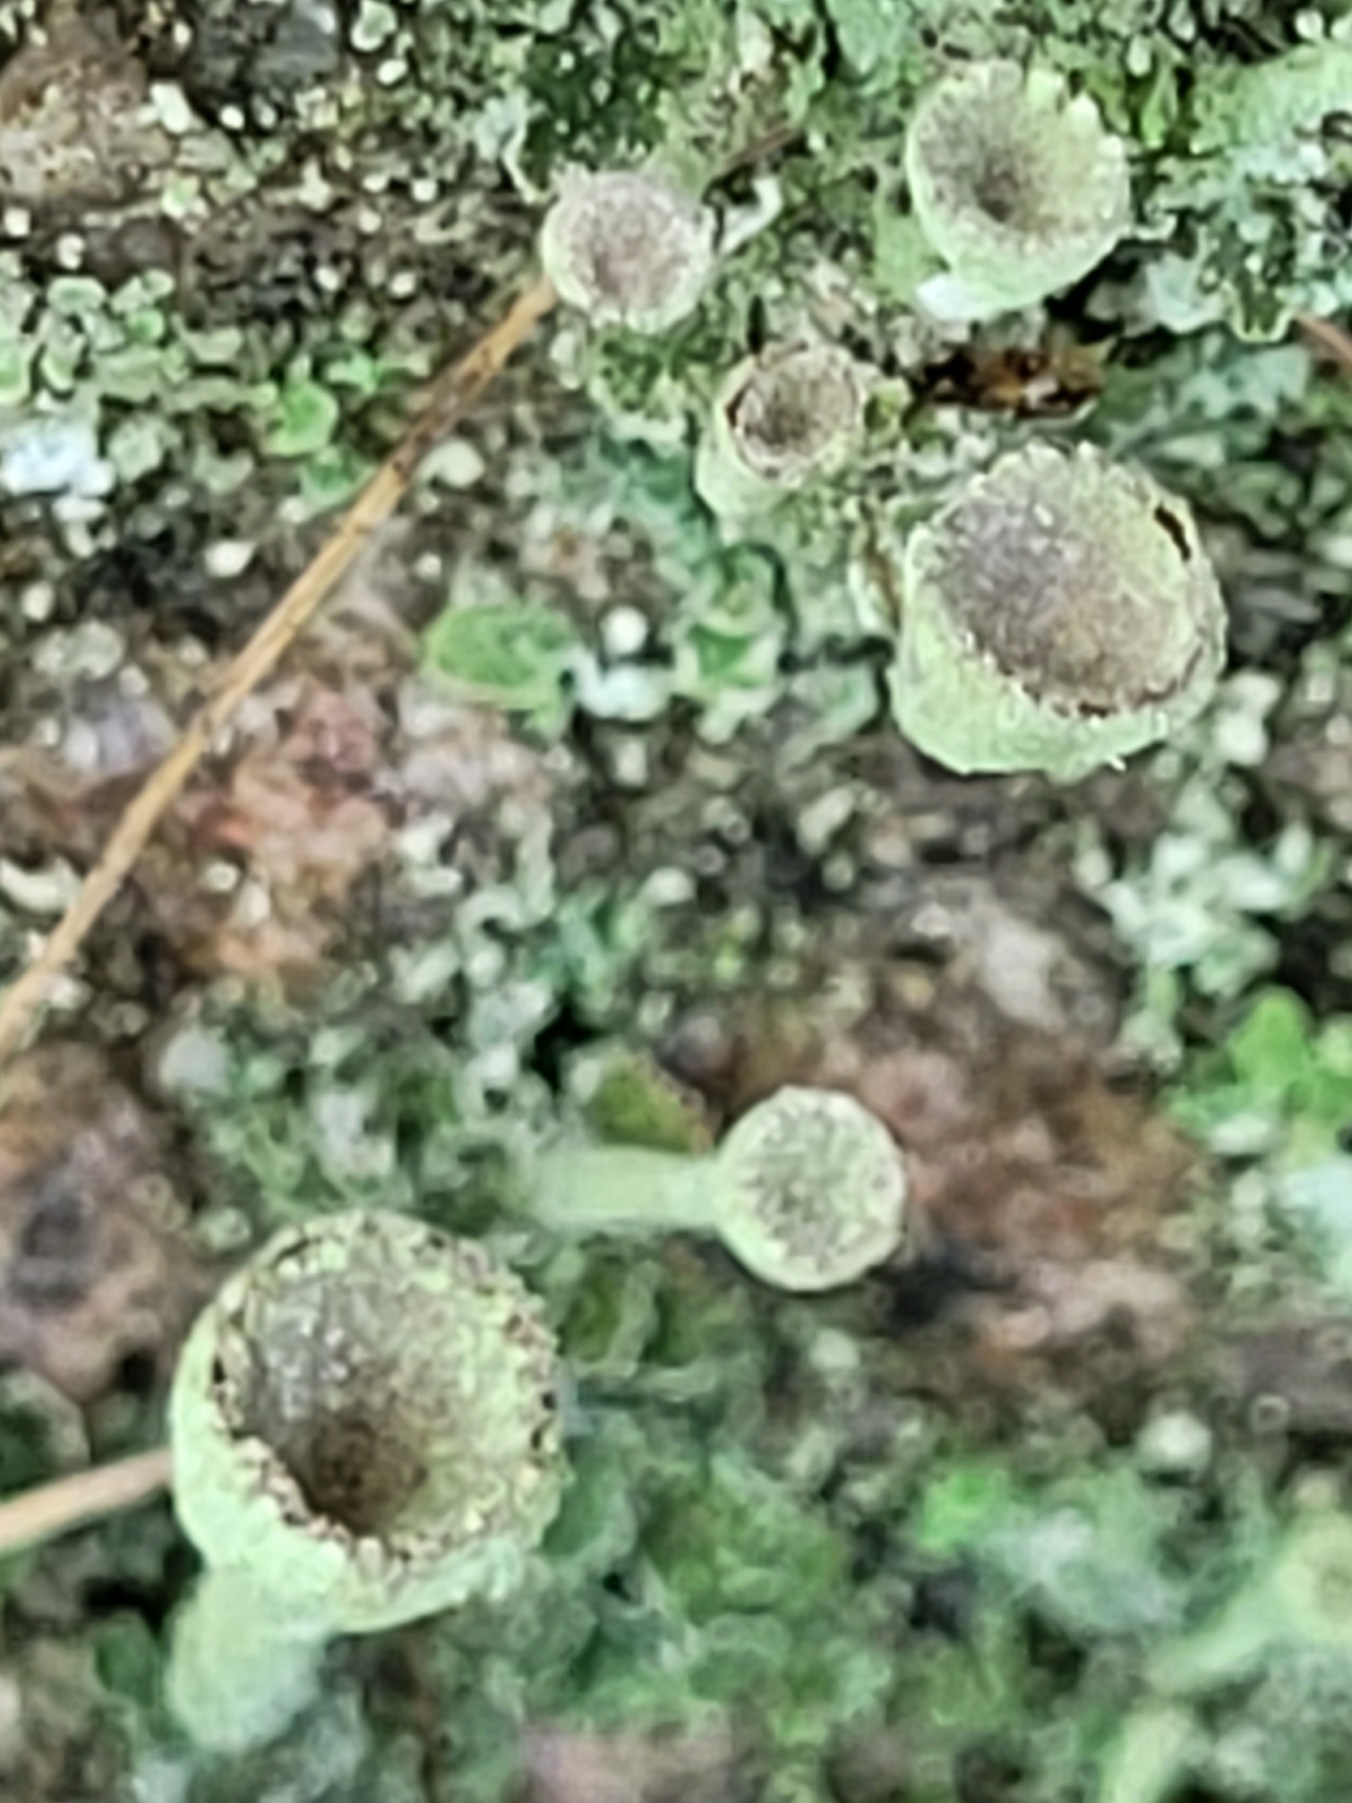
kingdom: Fungi
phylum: Ascomycota
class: Lecanoromycetes
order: Lecanorales
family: Cladoniaceae
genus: Cladonia
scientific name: Cladonia
